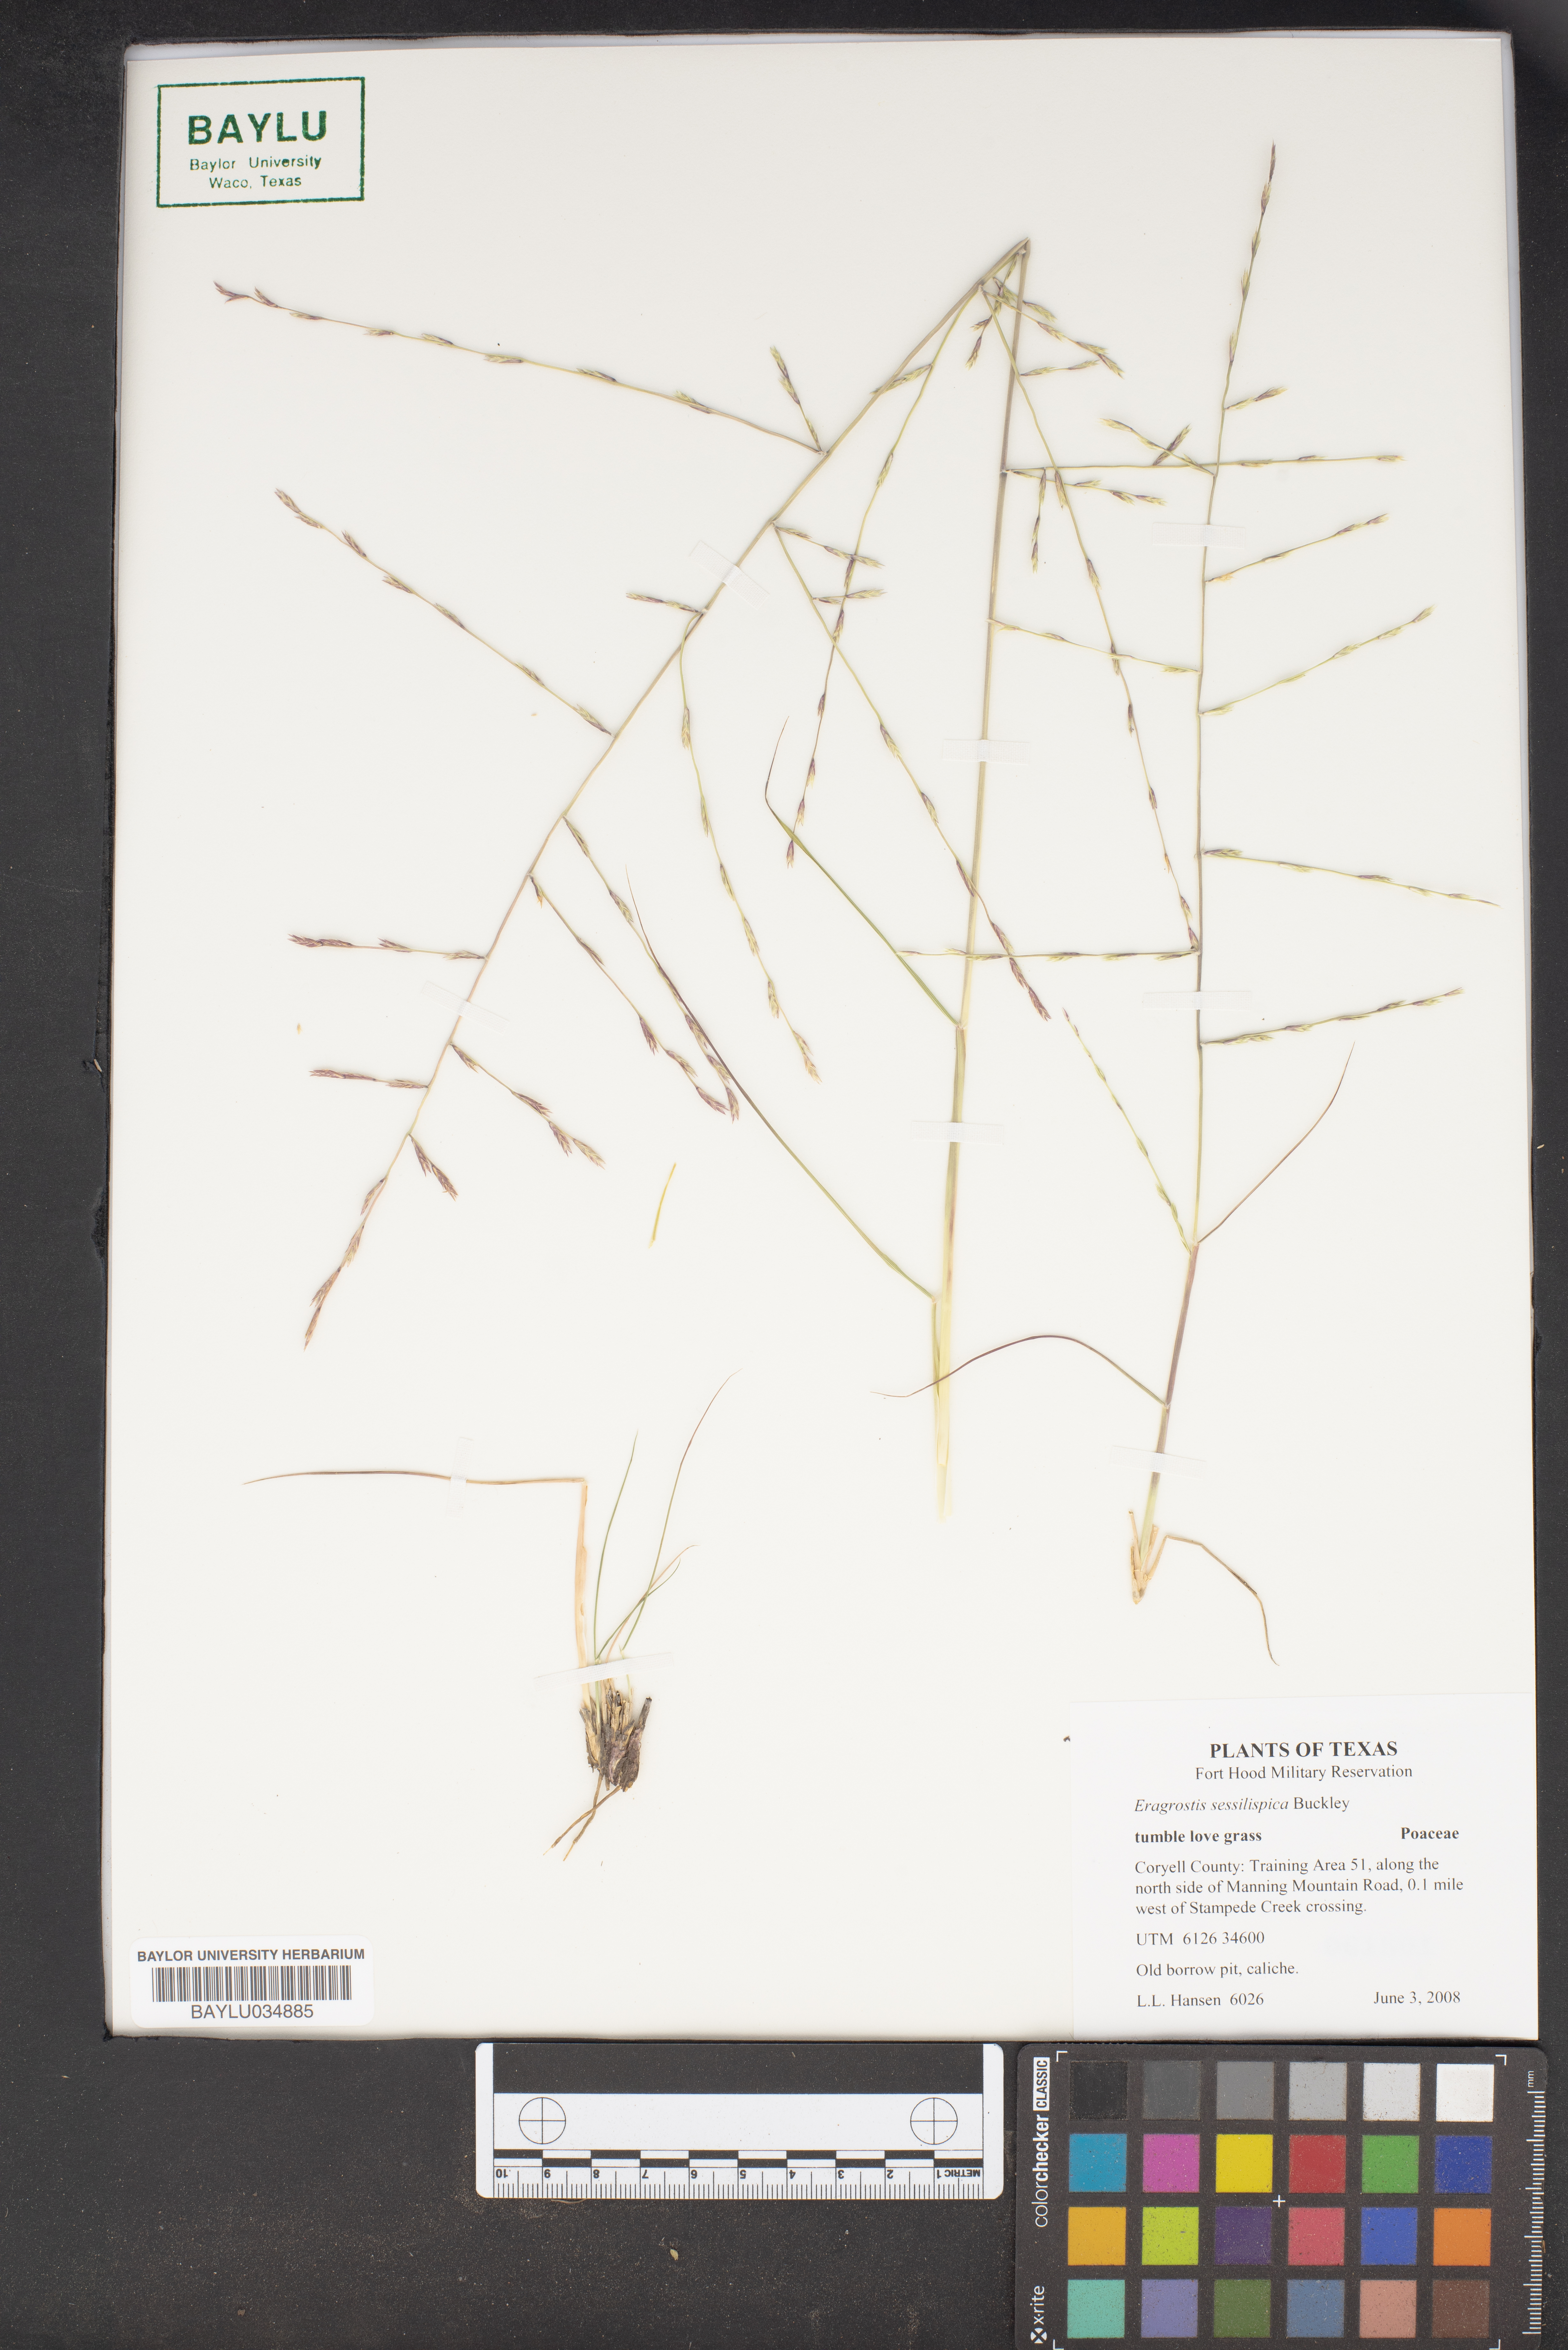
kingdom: Plantae
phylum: Tracheophyta
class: Liliopsida
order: Poales
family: Poaceae
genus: Eragrostis
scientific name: Eragrostis sessilispica
